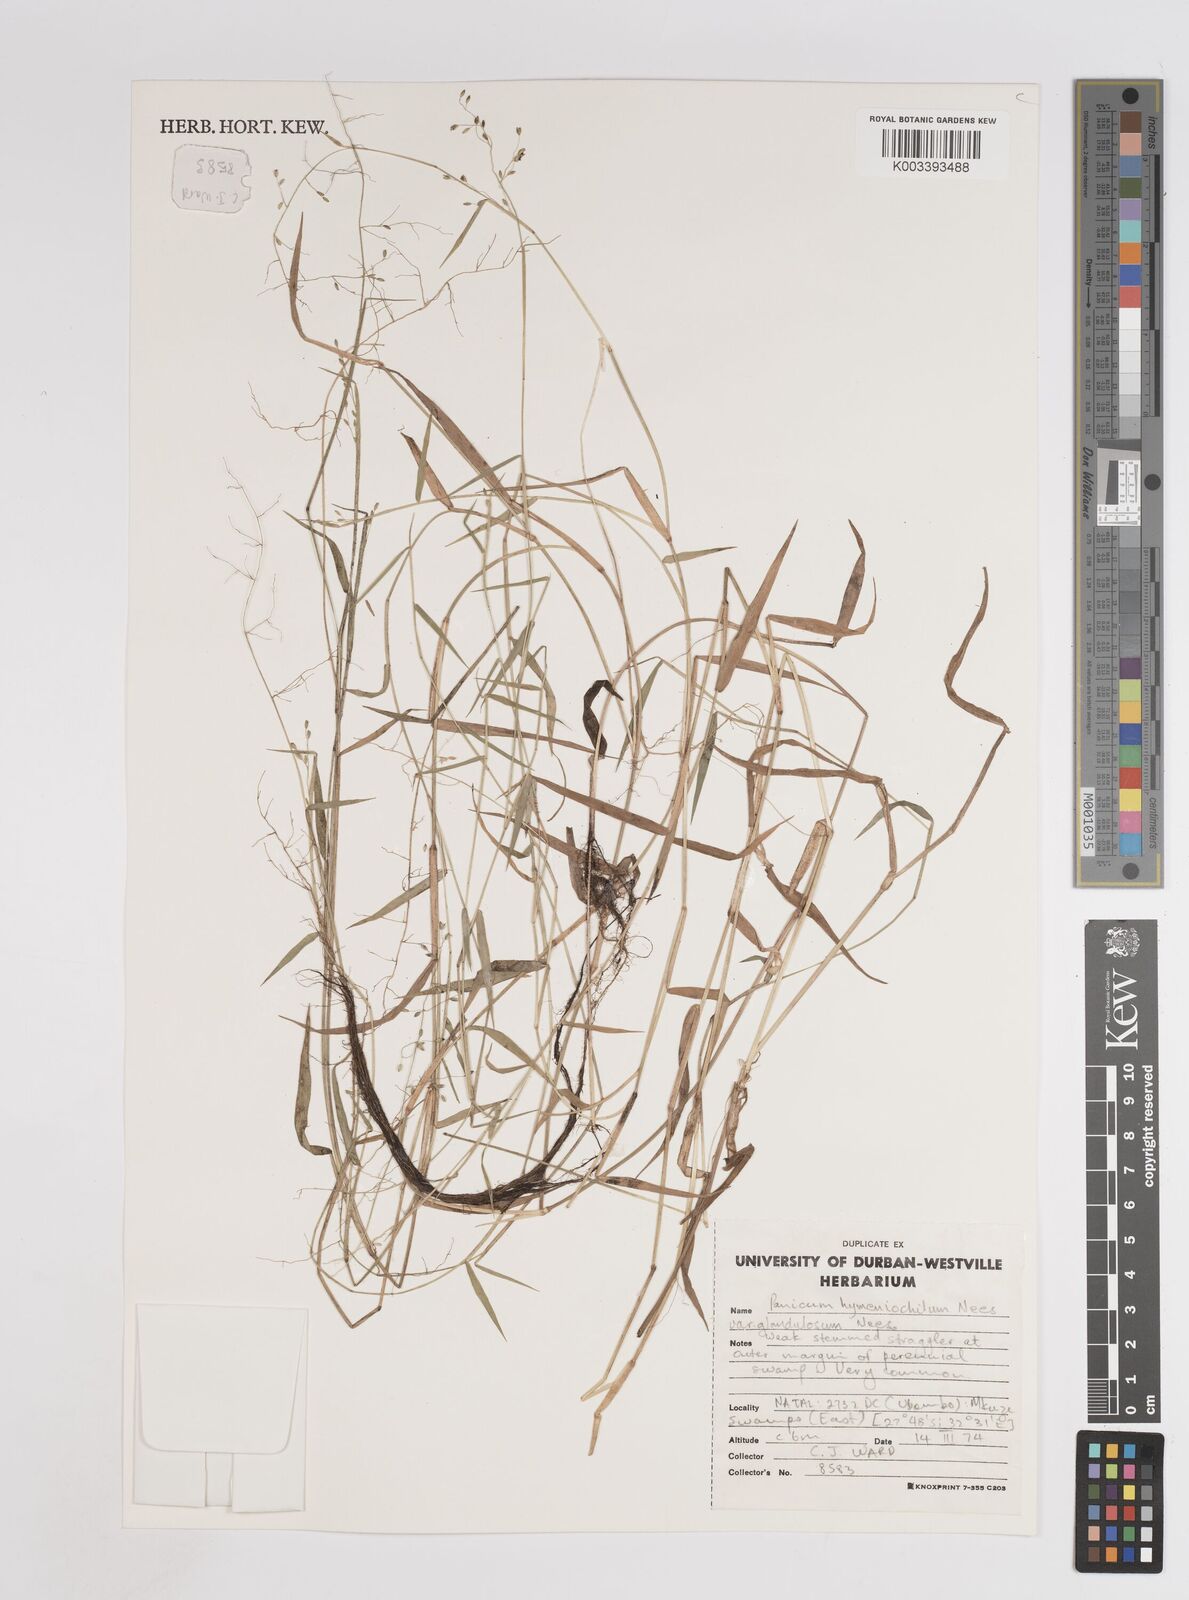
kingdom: Plantae
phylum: Tracheophyta
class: Liliopsida
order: Poales
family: Poaceae
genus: Adenochloa
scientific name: Adenochloa hymeniochila
